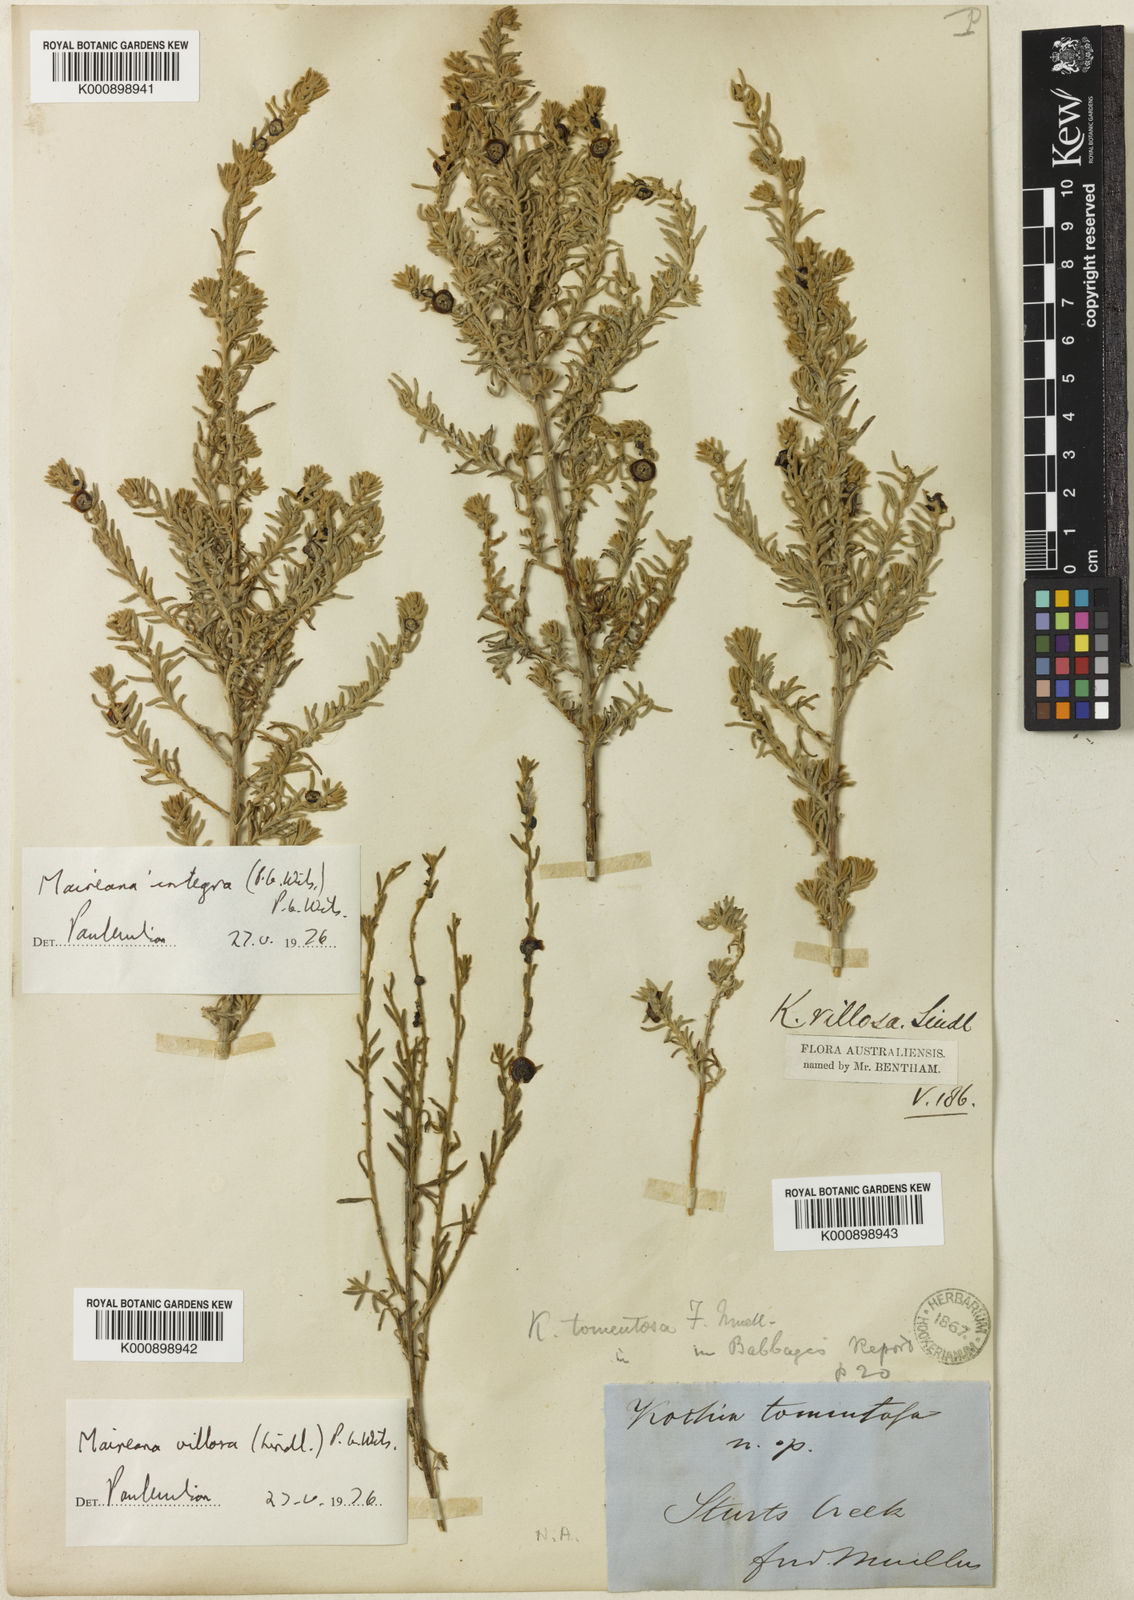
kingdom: Plantae
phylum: Tracheophyta
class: Magnoliopsida
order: Caryophyllales
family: Amaranthaceae
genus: Maireana
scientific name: Maireana villosa
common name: Silky bluebush
